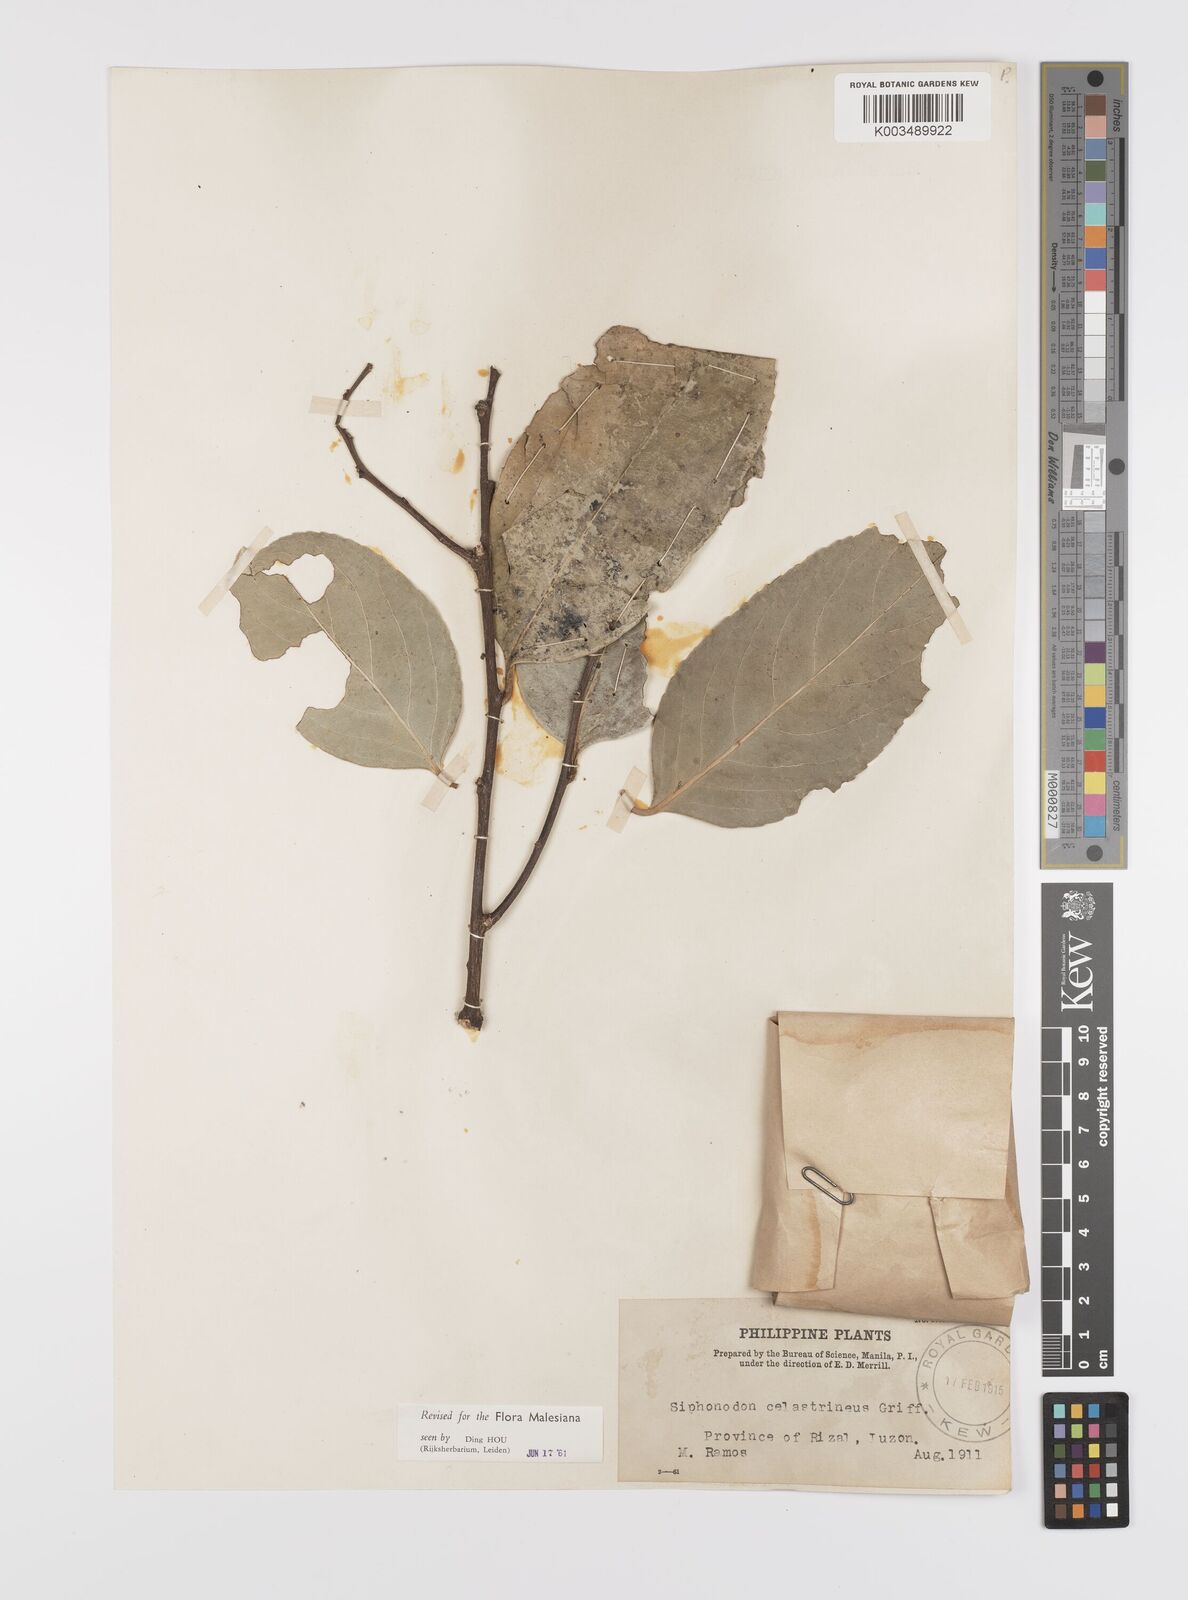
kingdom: Plantae
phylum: Tracheophyta
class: Magnoliopsida
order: Celastrales
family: Celastraceae
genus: Siphonodon
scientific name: Siphonodon celastrineus
